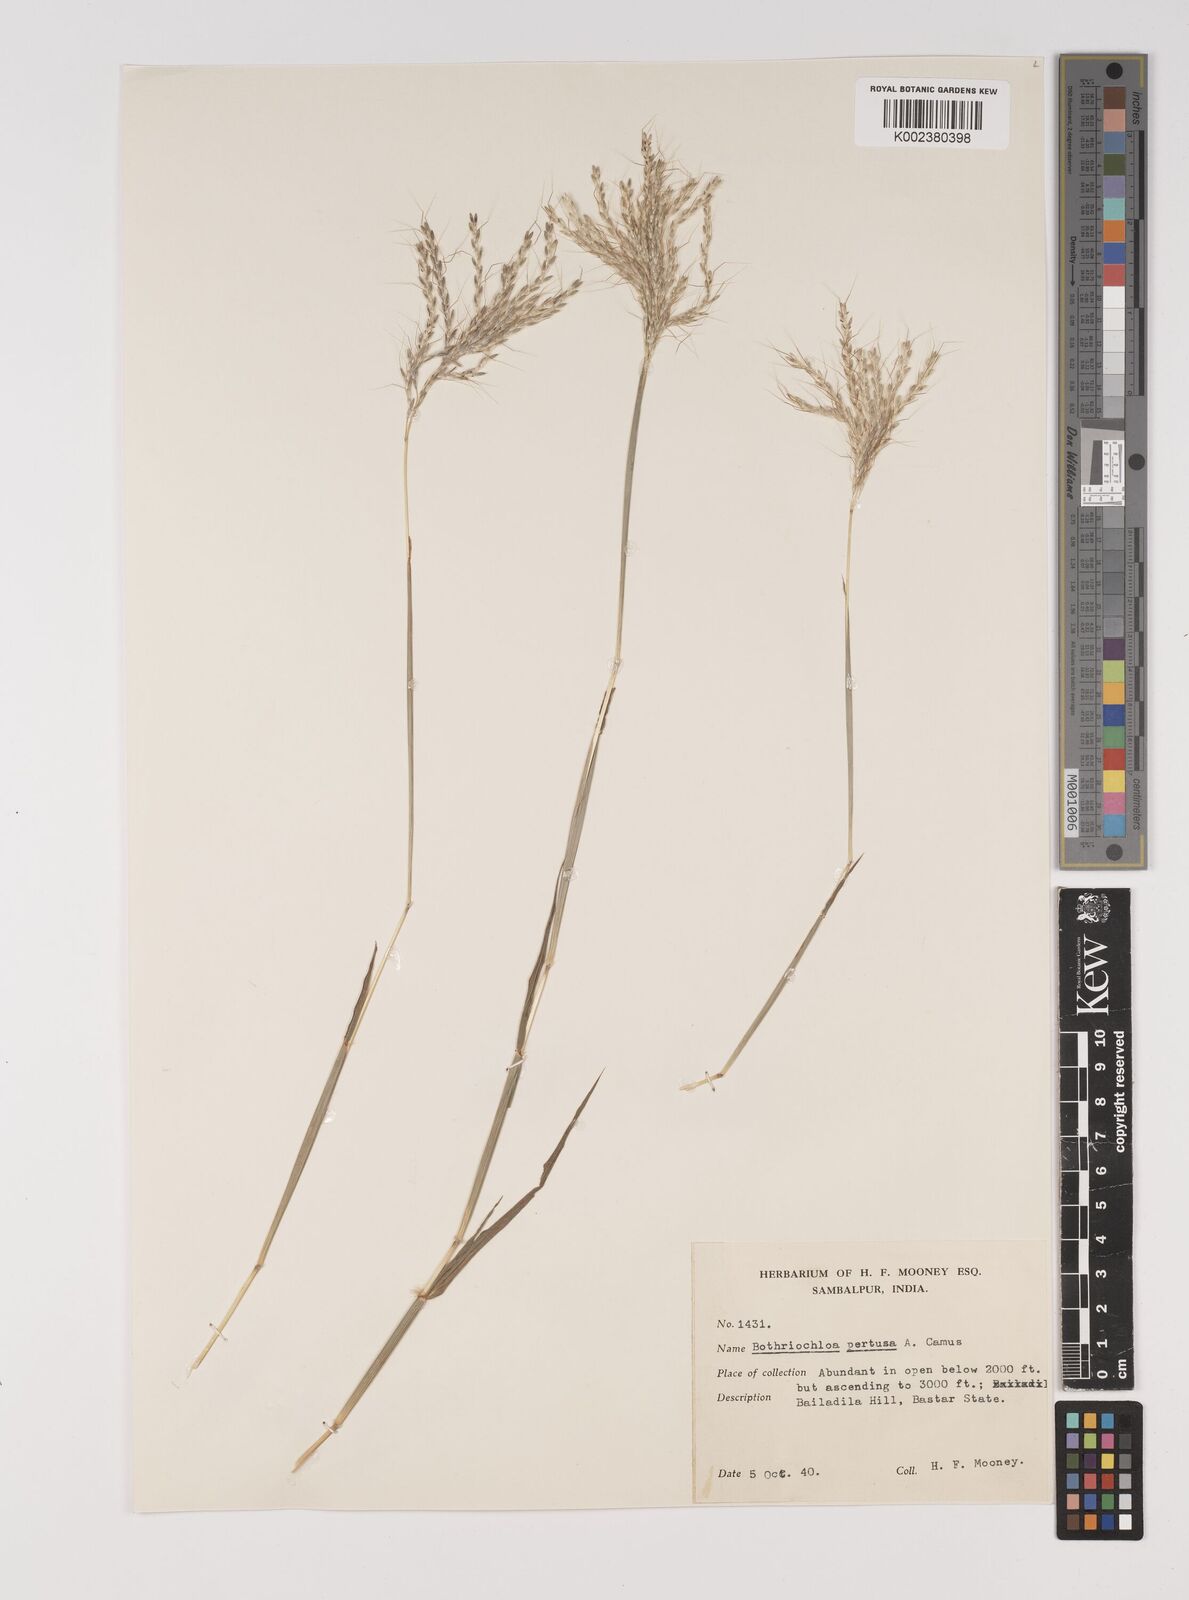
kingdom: Plantae
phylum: Tracheophyta
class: Liliopsida
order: Poales
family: Poaceae
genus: Bothriochloa
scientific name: Bothriochloa pertusa
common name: Pitted beardgrass
